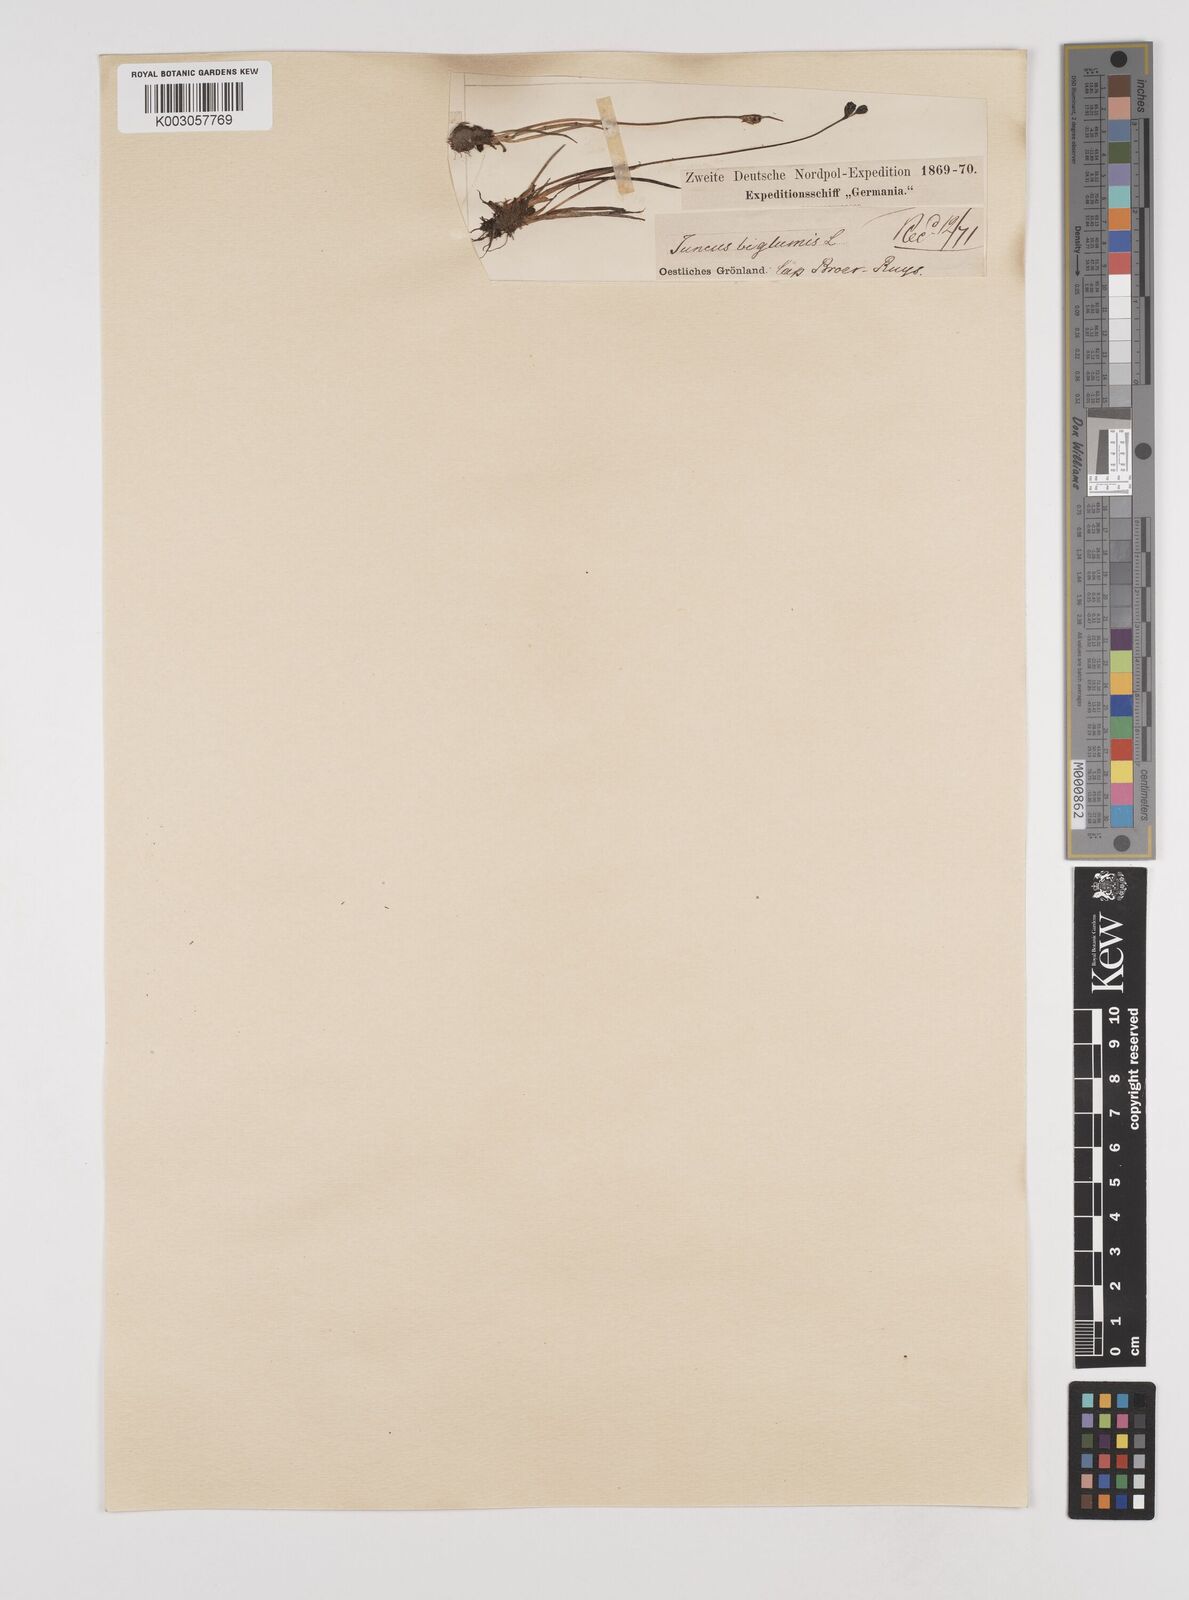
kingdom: Plantae
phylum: Tracheophyta
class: Liliopsida
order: Poales
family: Juncaceae
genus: Juncus
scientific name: Juncus biglumis
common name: Two-flowered rush
